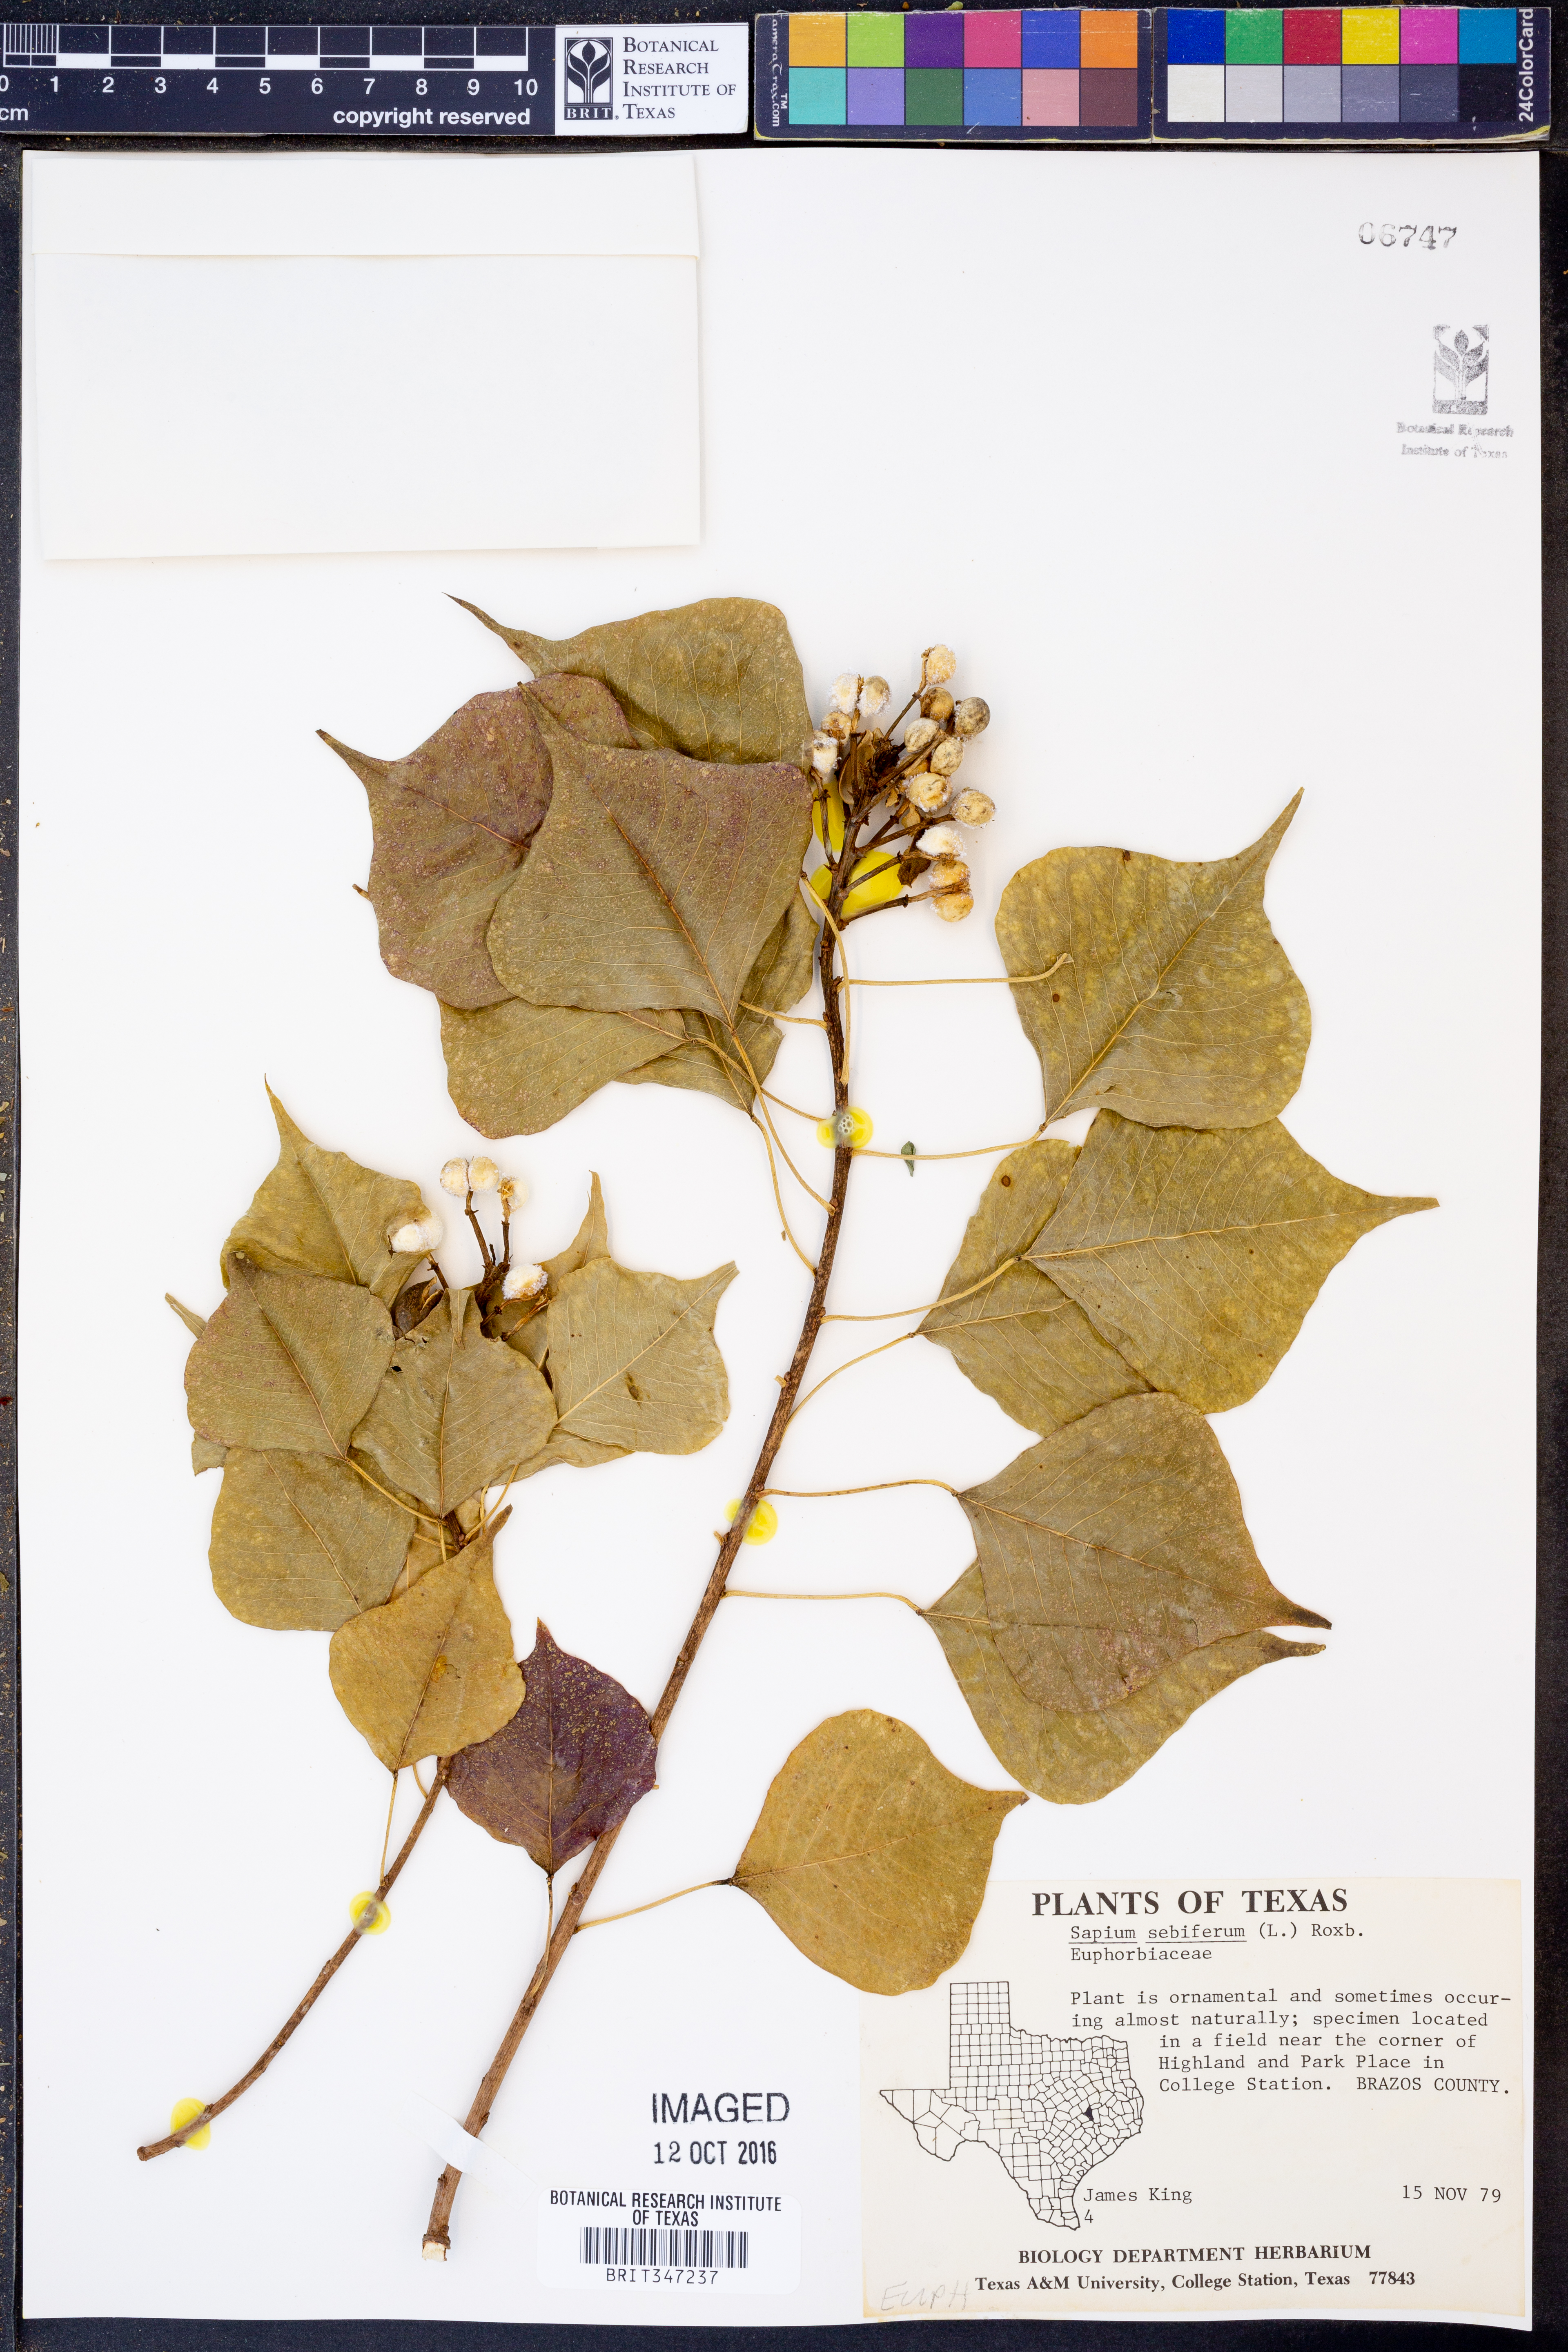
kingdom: Plantae
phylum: Tracheophyta
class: Magnoliopsida
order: Malpighiales
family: Euphorbiaceae
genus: Triadica
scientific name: Triadica sebifera
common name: Chinese tallow
